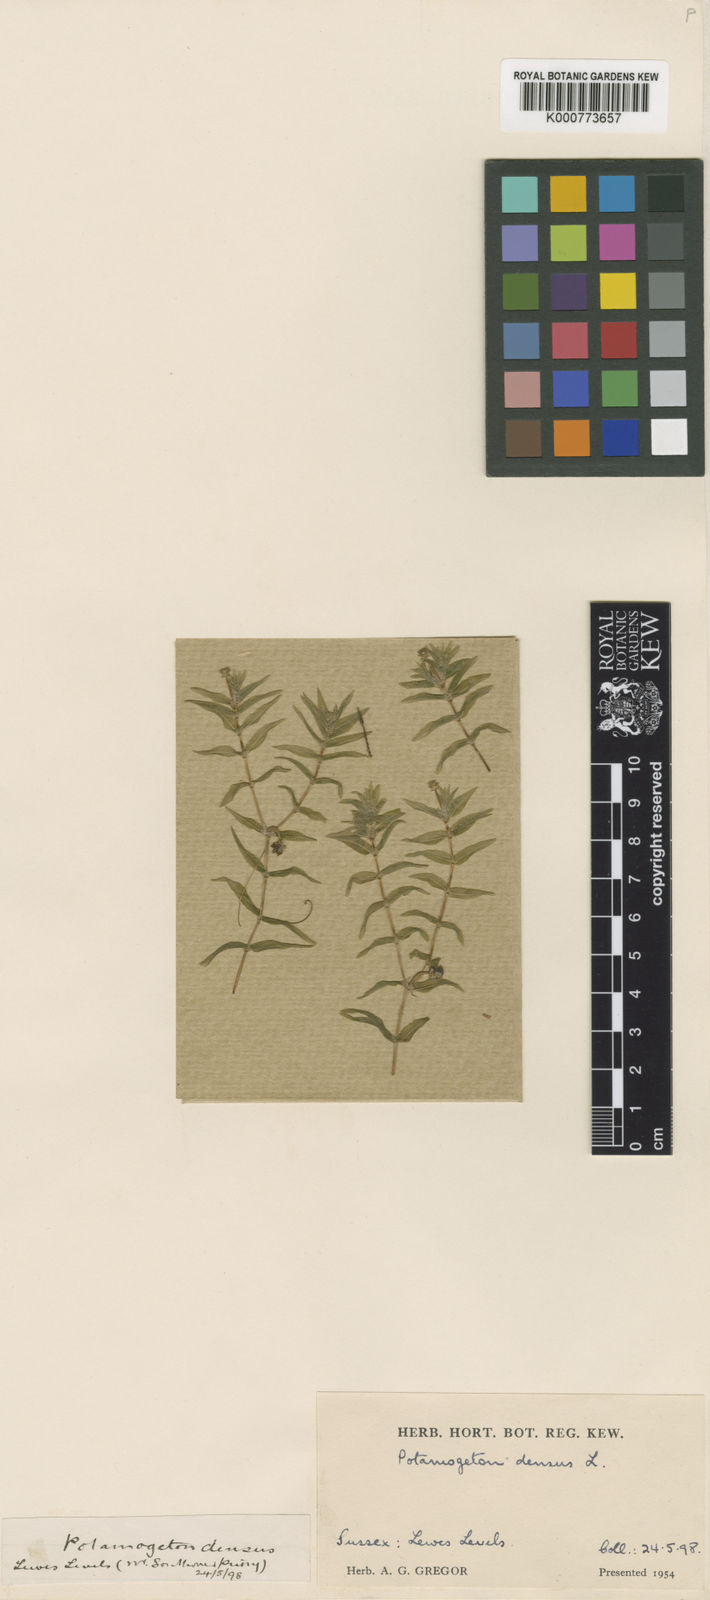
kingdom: Plantae
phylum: Tracheophyta
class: Liliopsida
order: Alismatales
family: Potamogetonaceae
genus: Groenlandia
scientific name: Groenlandia densa
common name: Opposite-leaved pondweed
